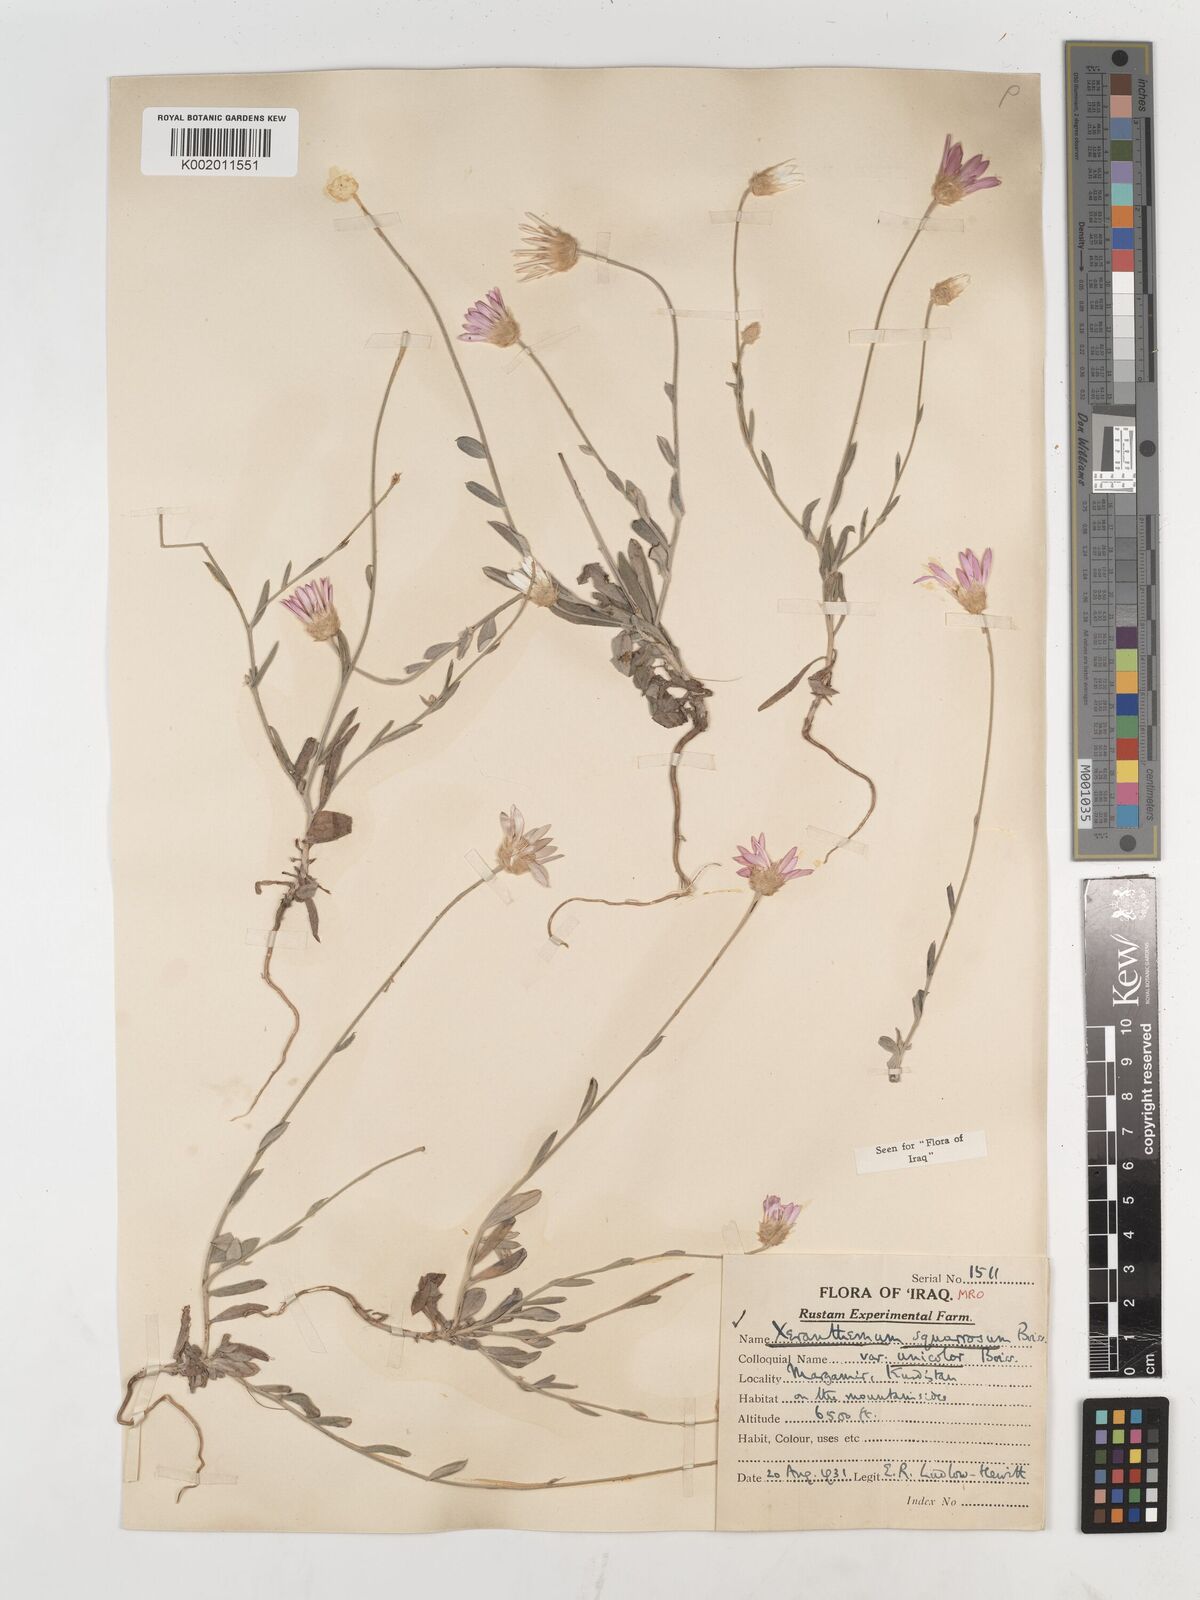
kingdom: Plantae
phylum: Tracheophyta
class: Magnoliopsida
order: Asterales
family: Asteraceae
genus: Xeranthemum
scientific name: Xeranthemum annuum
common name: Immortelle
